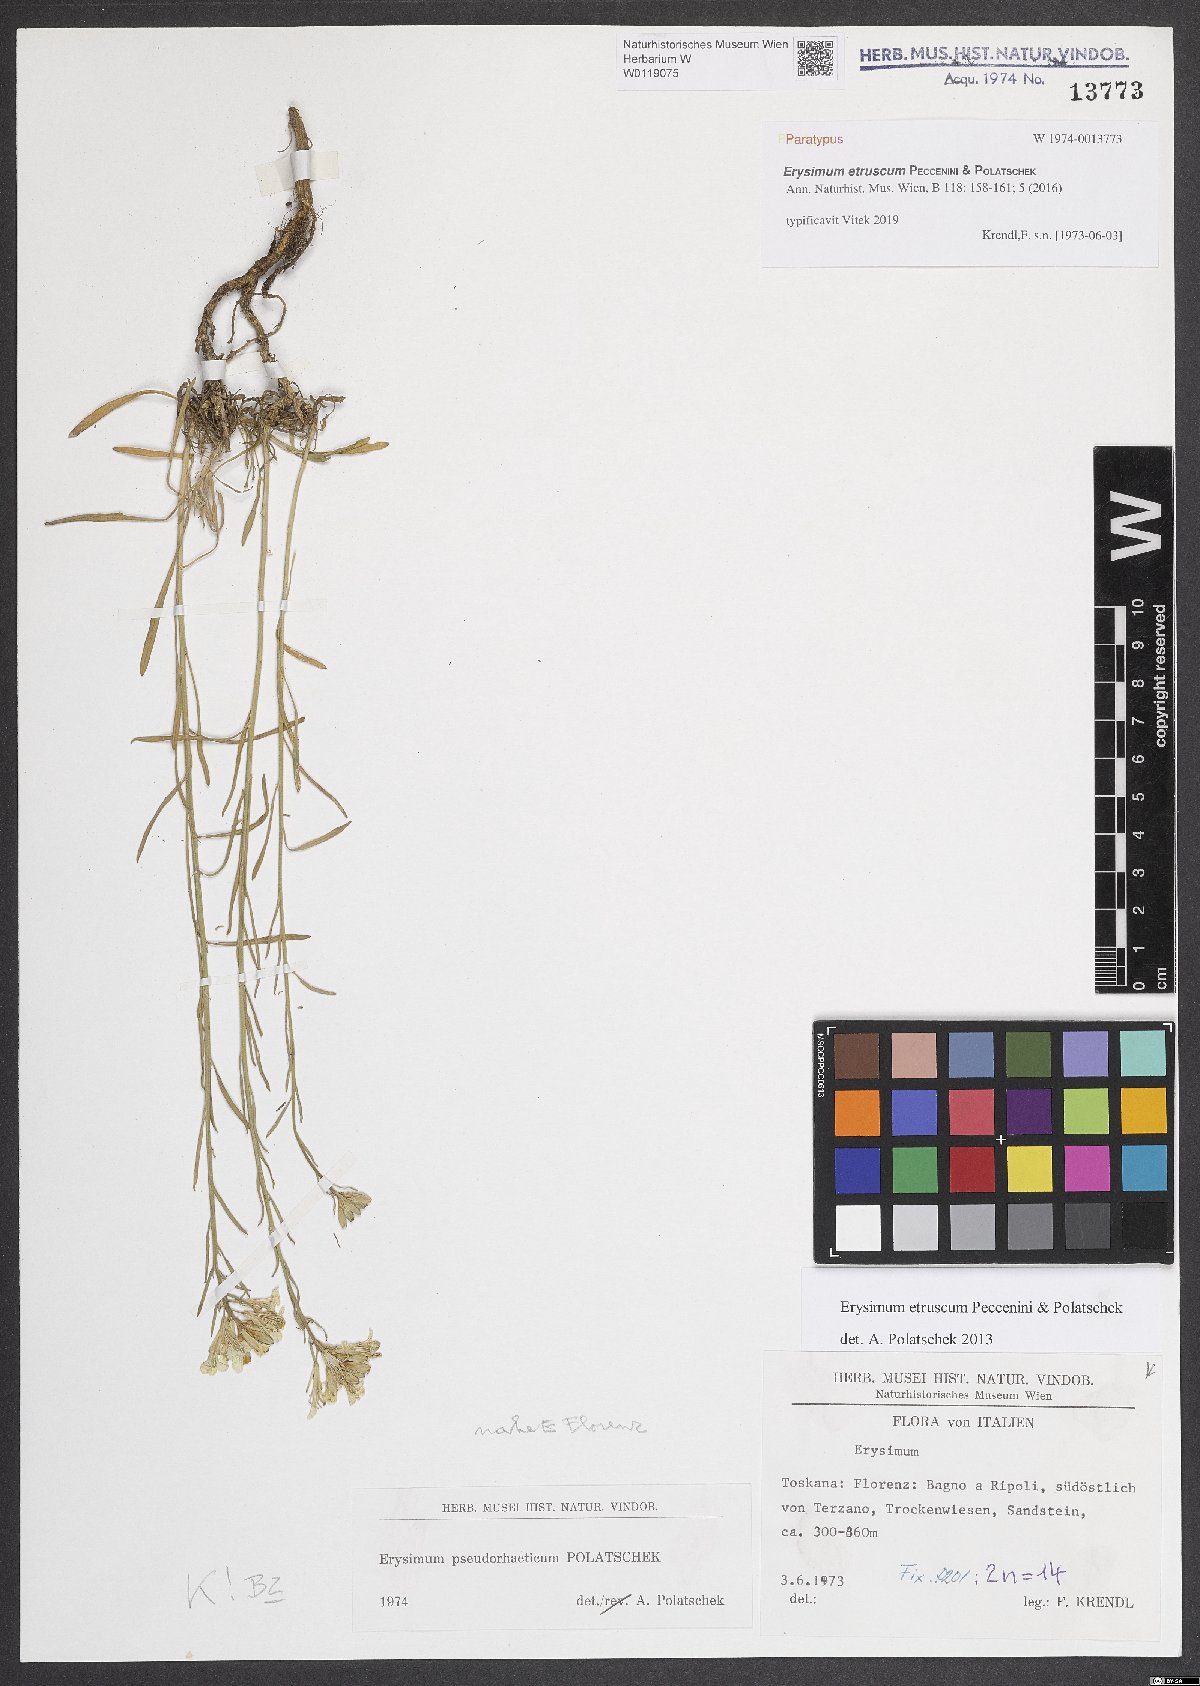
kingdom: Plantae
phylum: Tracheophyta
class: Magnoliopsida
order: Brassicales
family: Brassicaceae
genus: Erysimum
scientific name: Erysimum pseudorhaeticum
